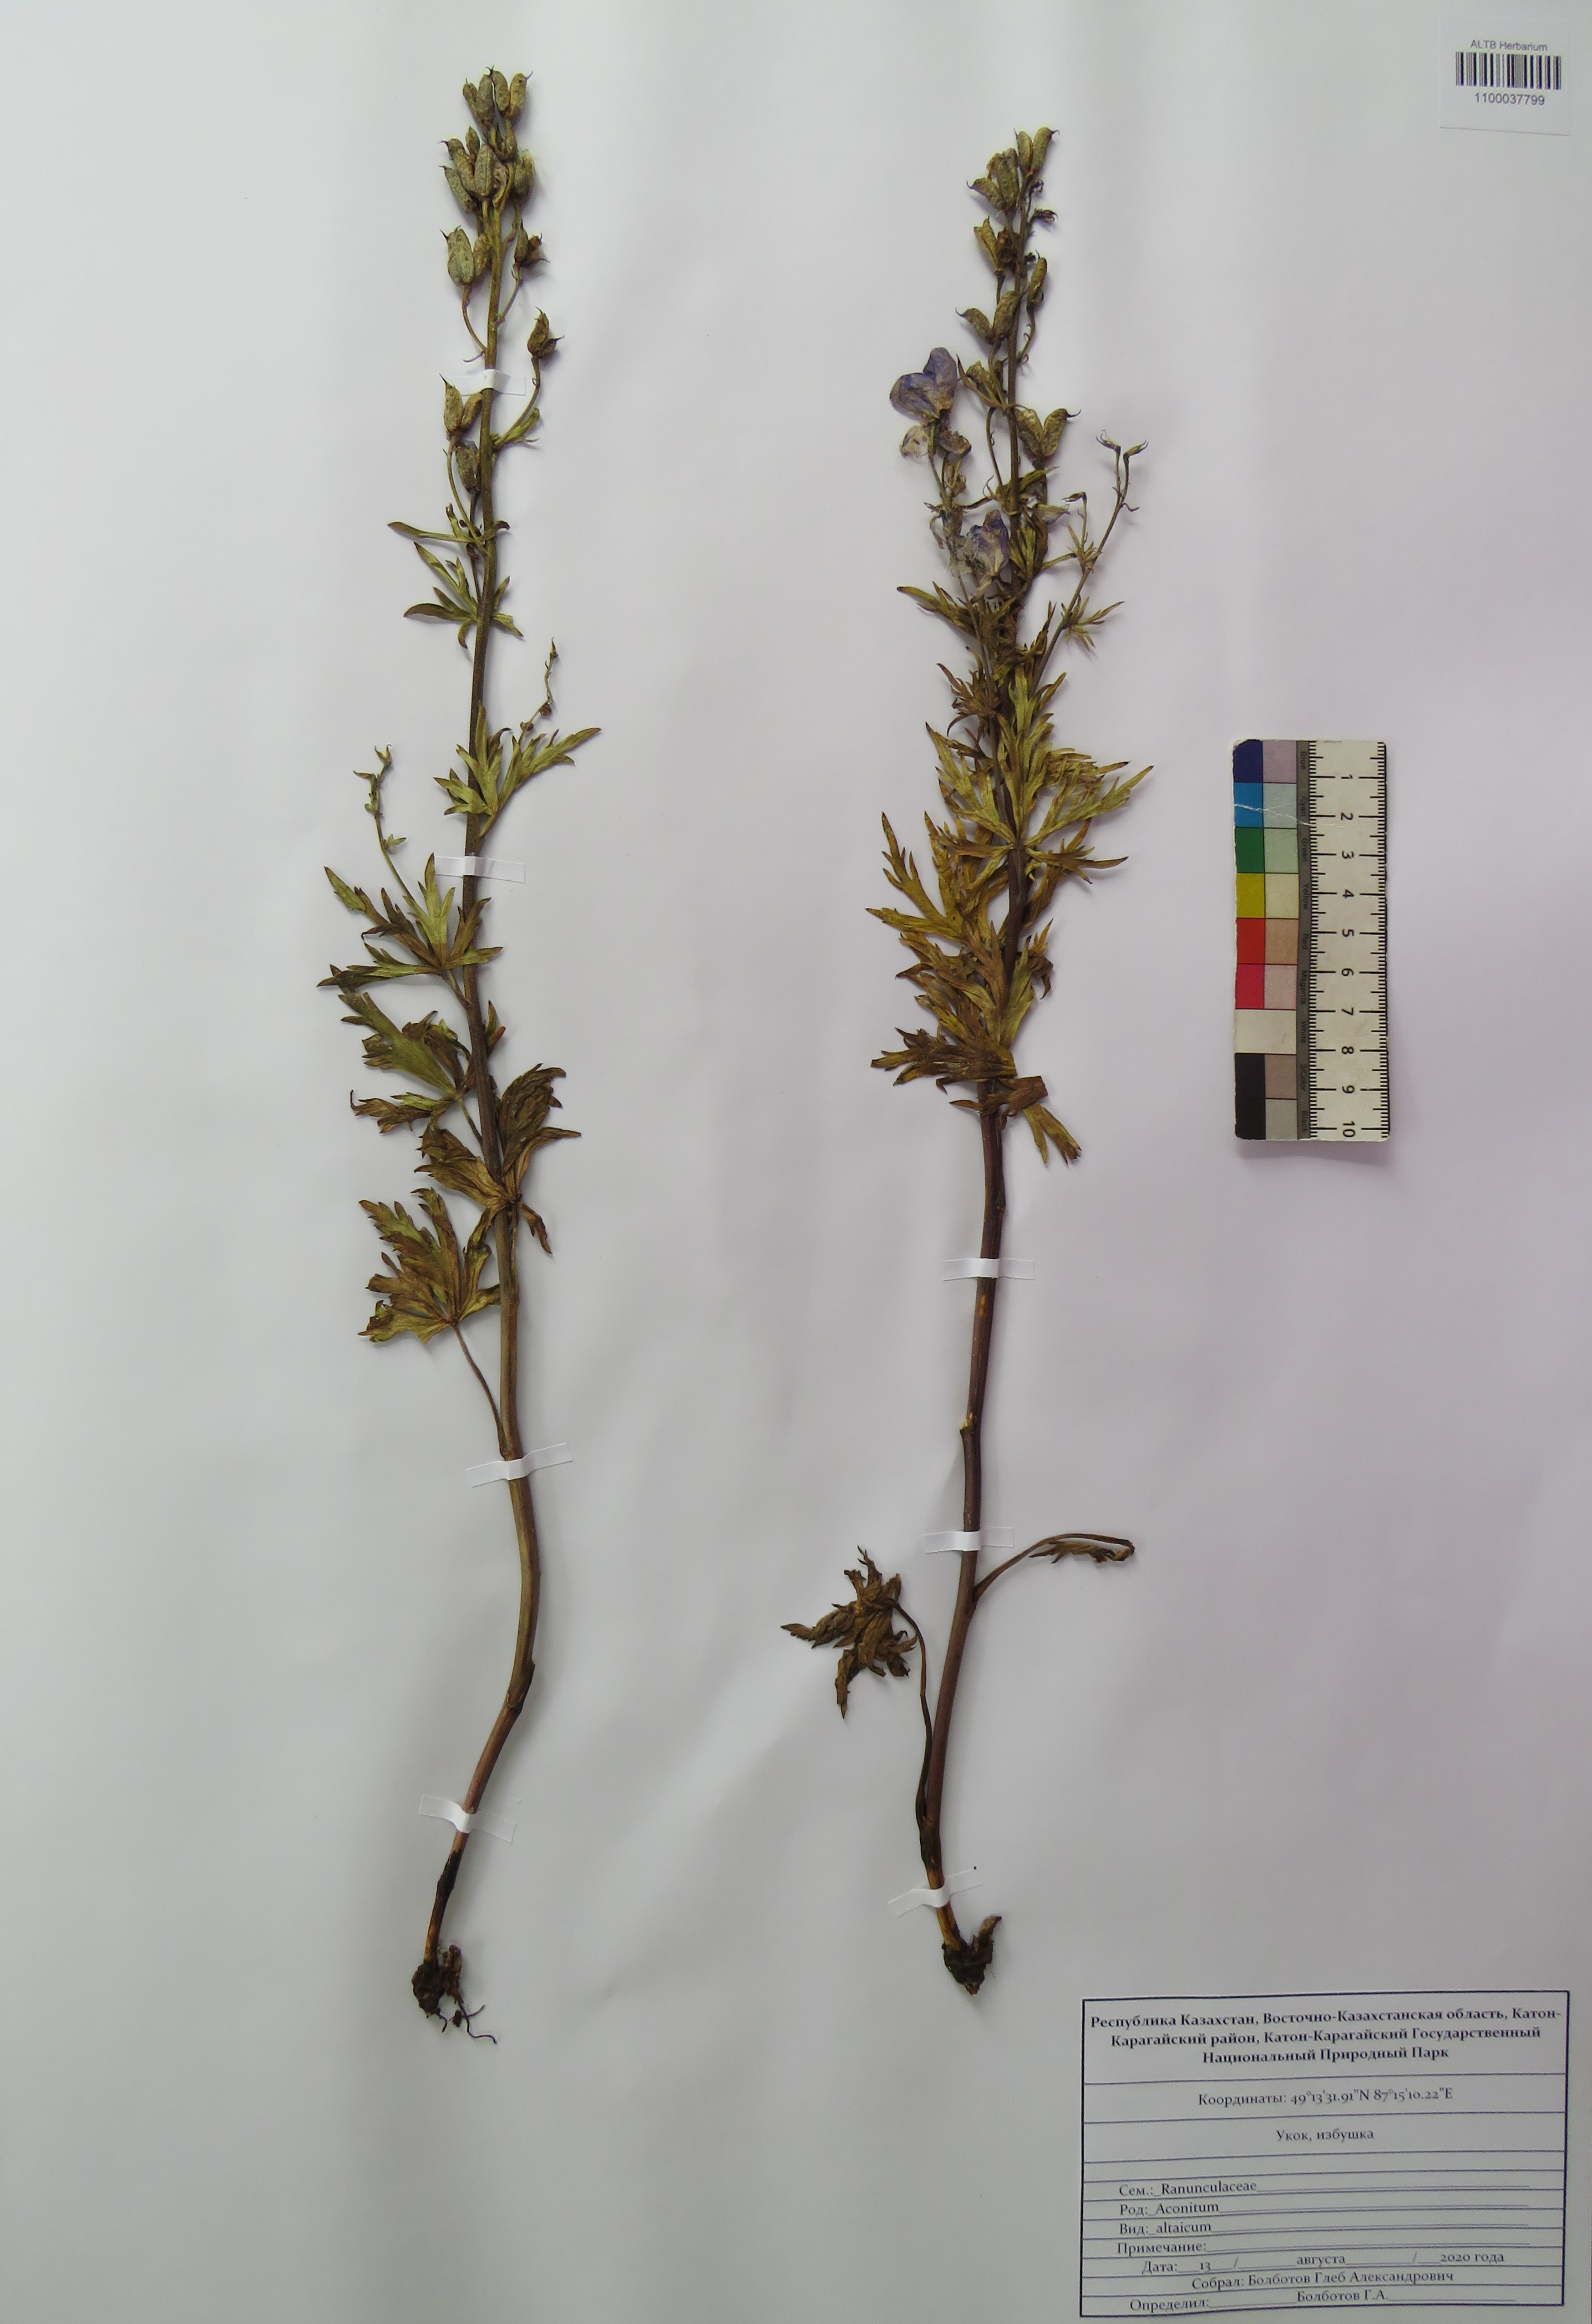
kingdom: Plantae
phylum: Tracheophyta
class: Magnoliopsida
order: Ranunculales
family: Ranunculaceae
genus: Aconitum
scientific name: Aconitum glandulosum
